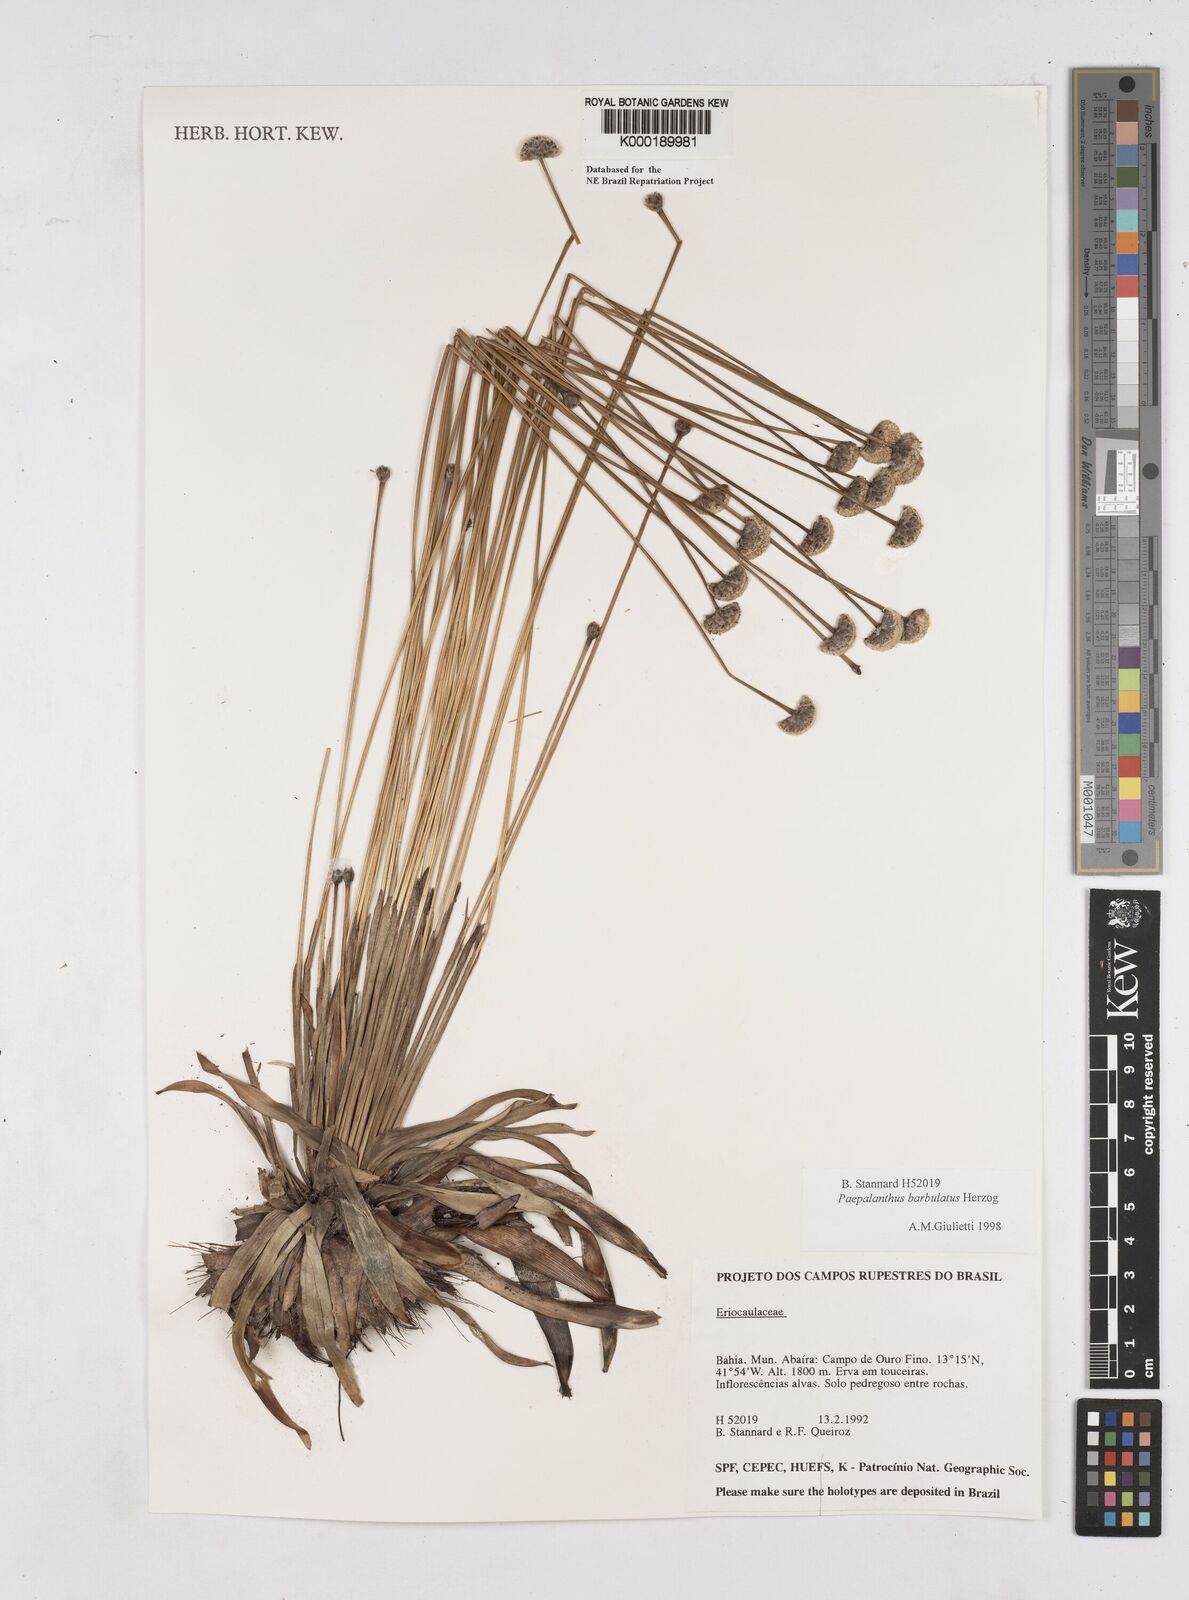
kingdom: Plantae
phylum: Tracheophyta
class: Liliopsida
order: Poales
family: Eriocaulaceae
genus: Paepalanthus
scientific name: Paepalanthus barbulatus
